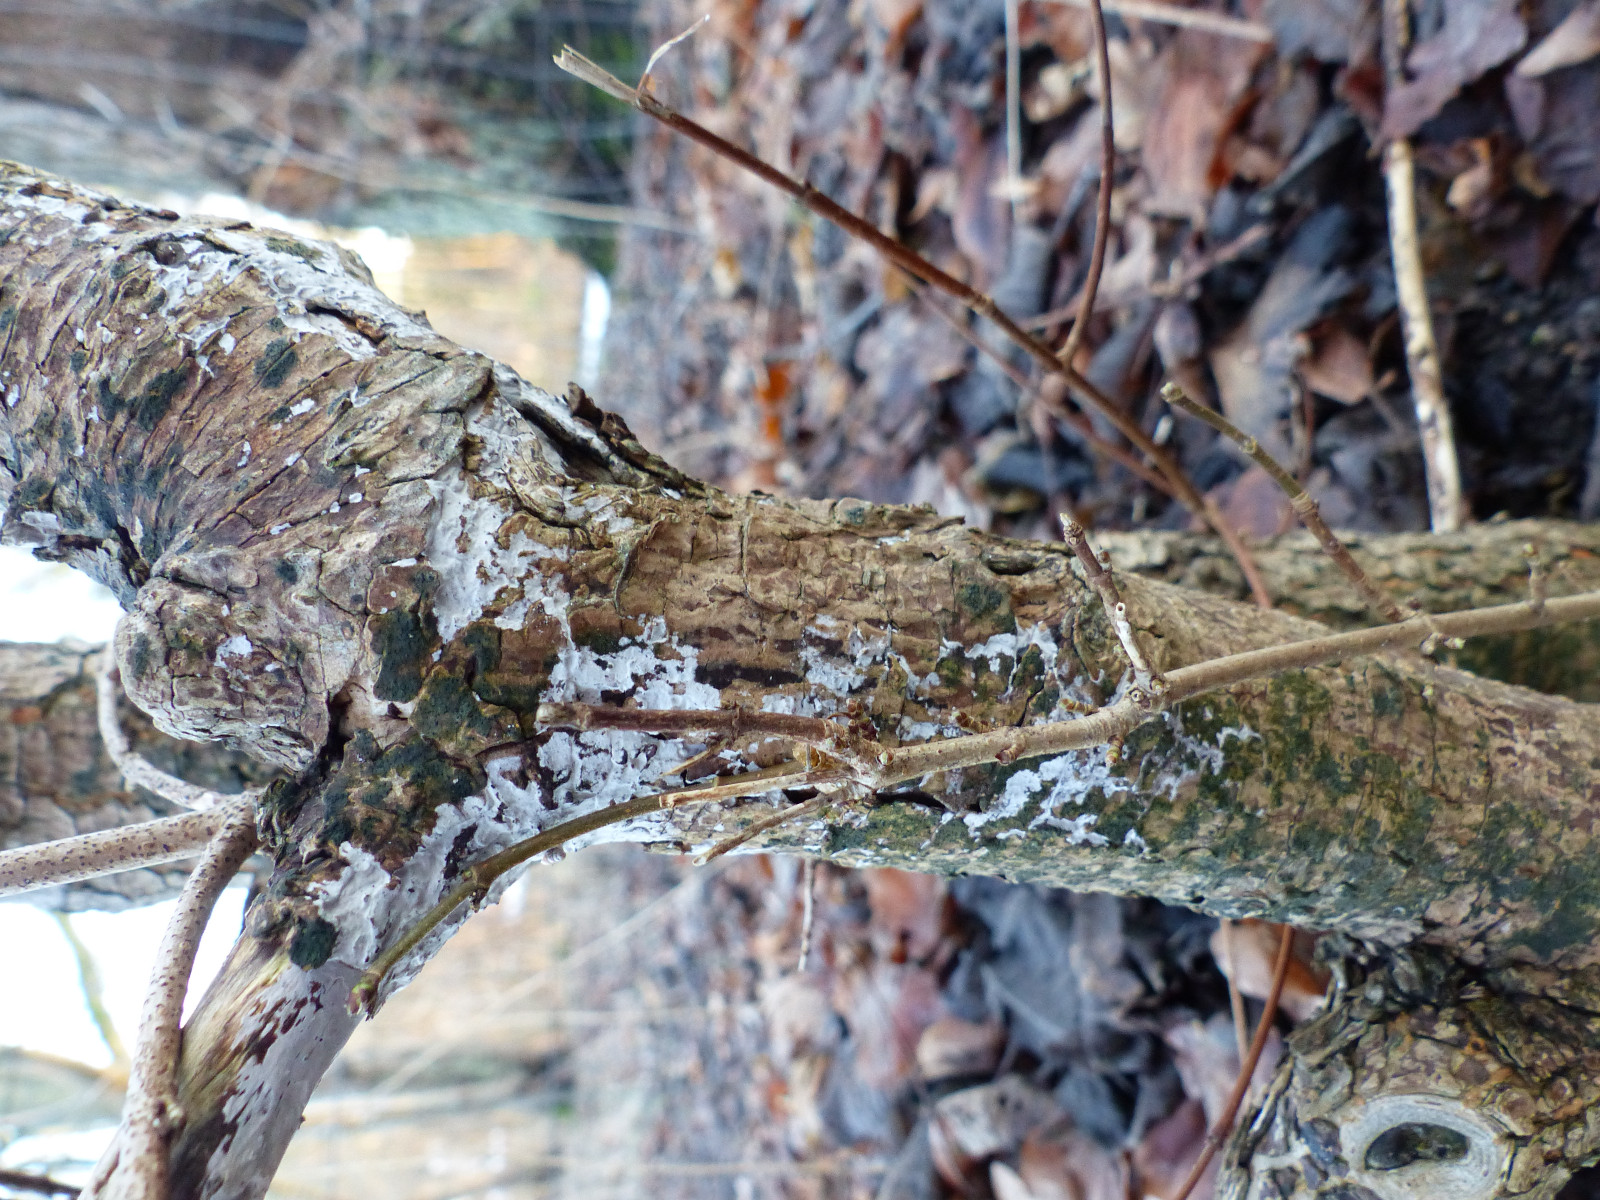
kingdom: Fungi
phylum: Basidiomycota
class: Agaricomycetes
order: Agaricales
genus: Dendrothele
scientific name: Dendrothele acerina
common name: navr-kalkplet
